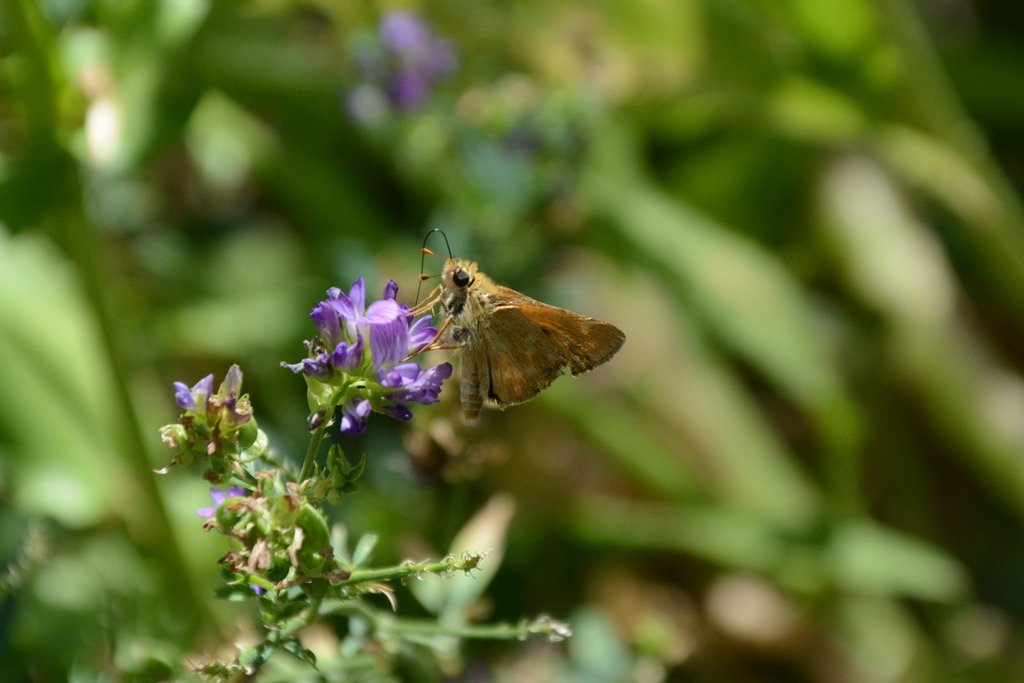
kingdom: Animalia
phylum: Arthropoda
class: Insecta
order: Lepidoptera
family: Hesperiidae
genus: Ochlodes
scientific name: Ochlodes sylvanoides
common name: Woodland Skipper
